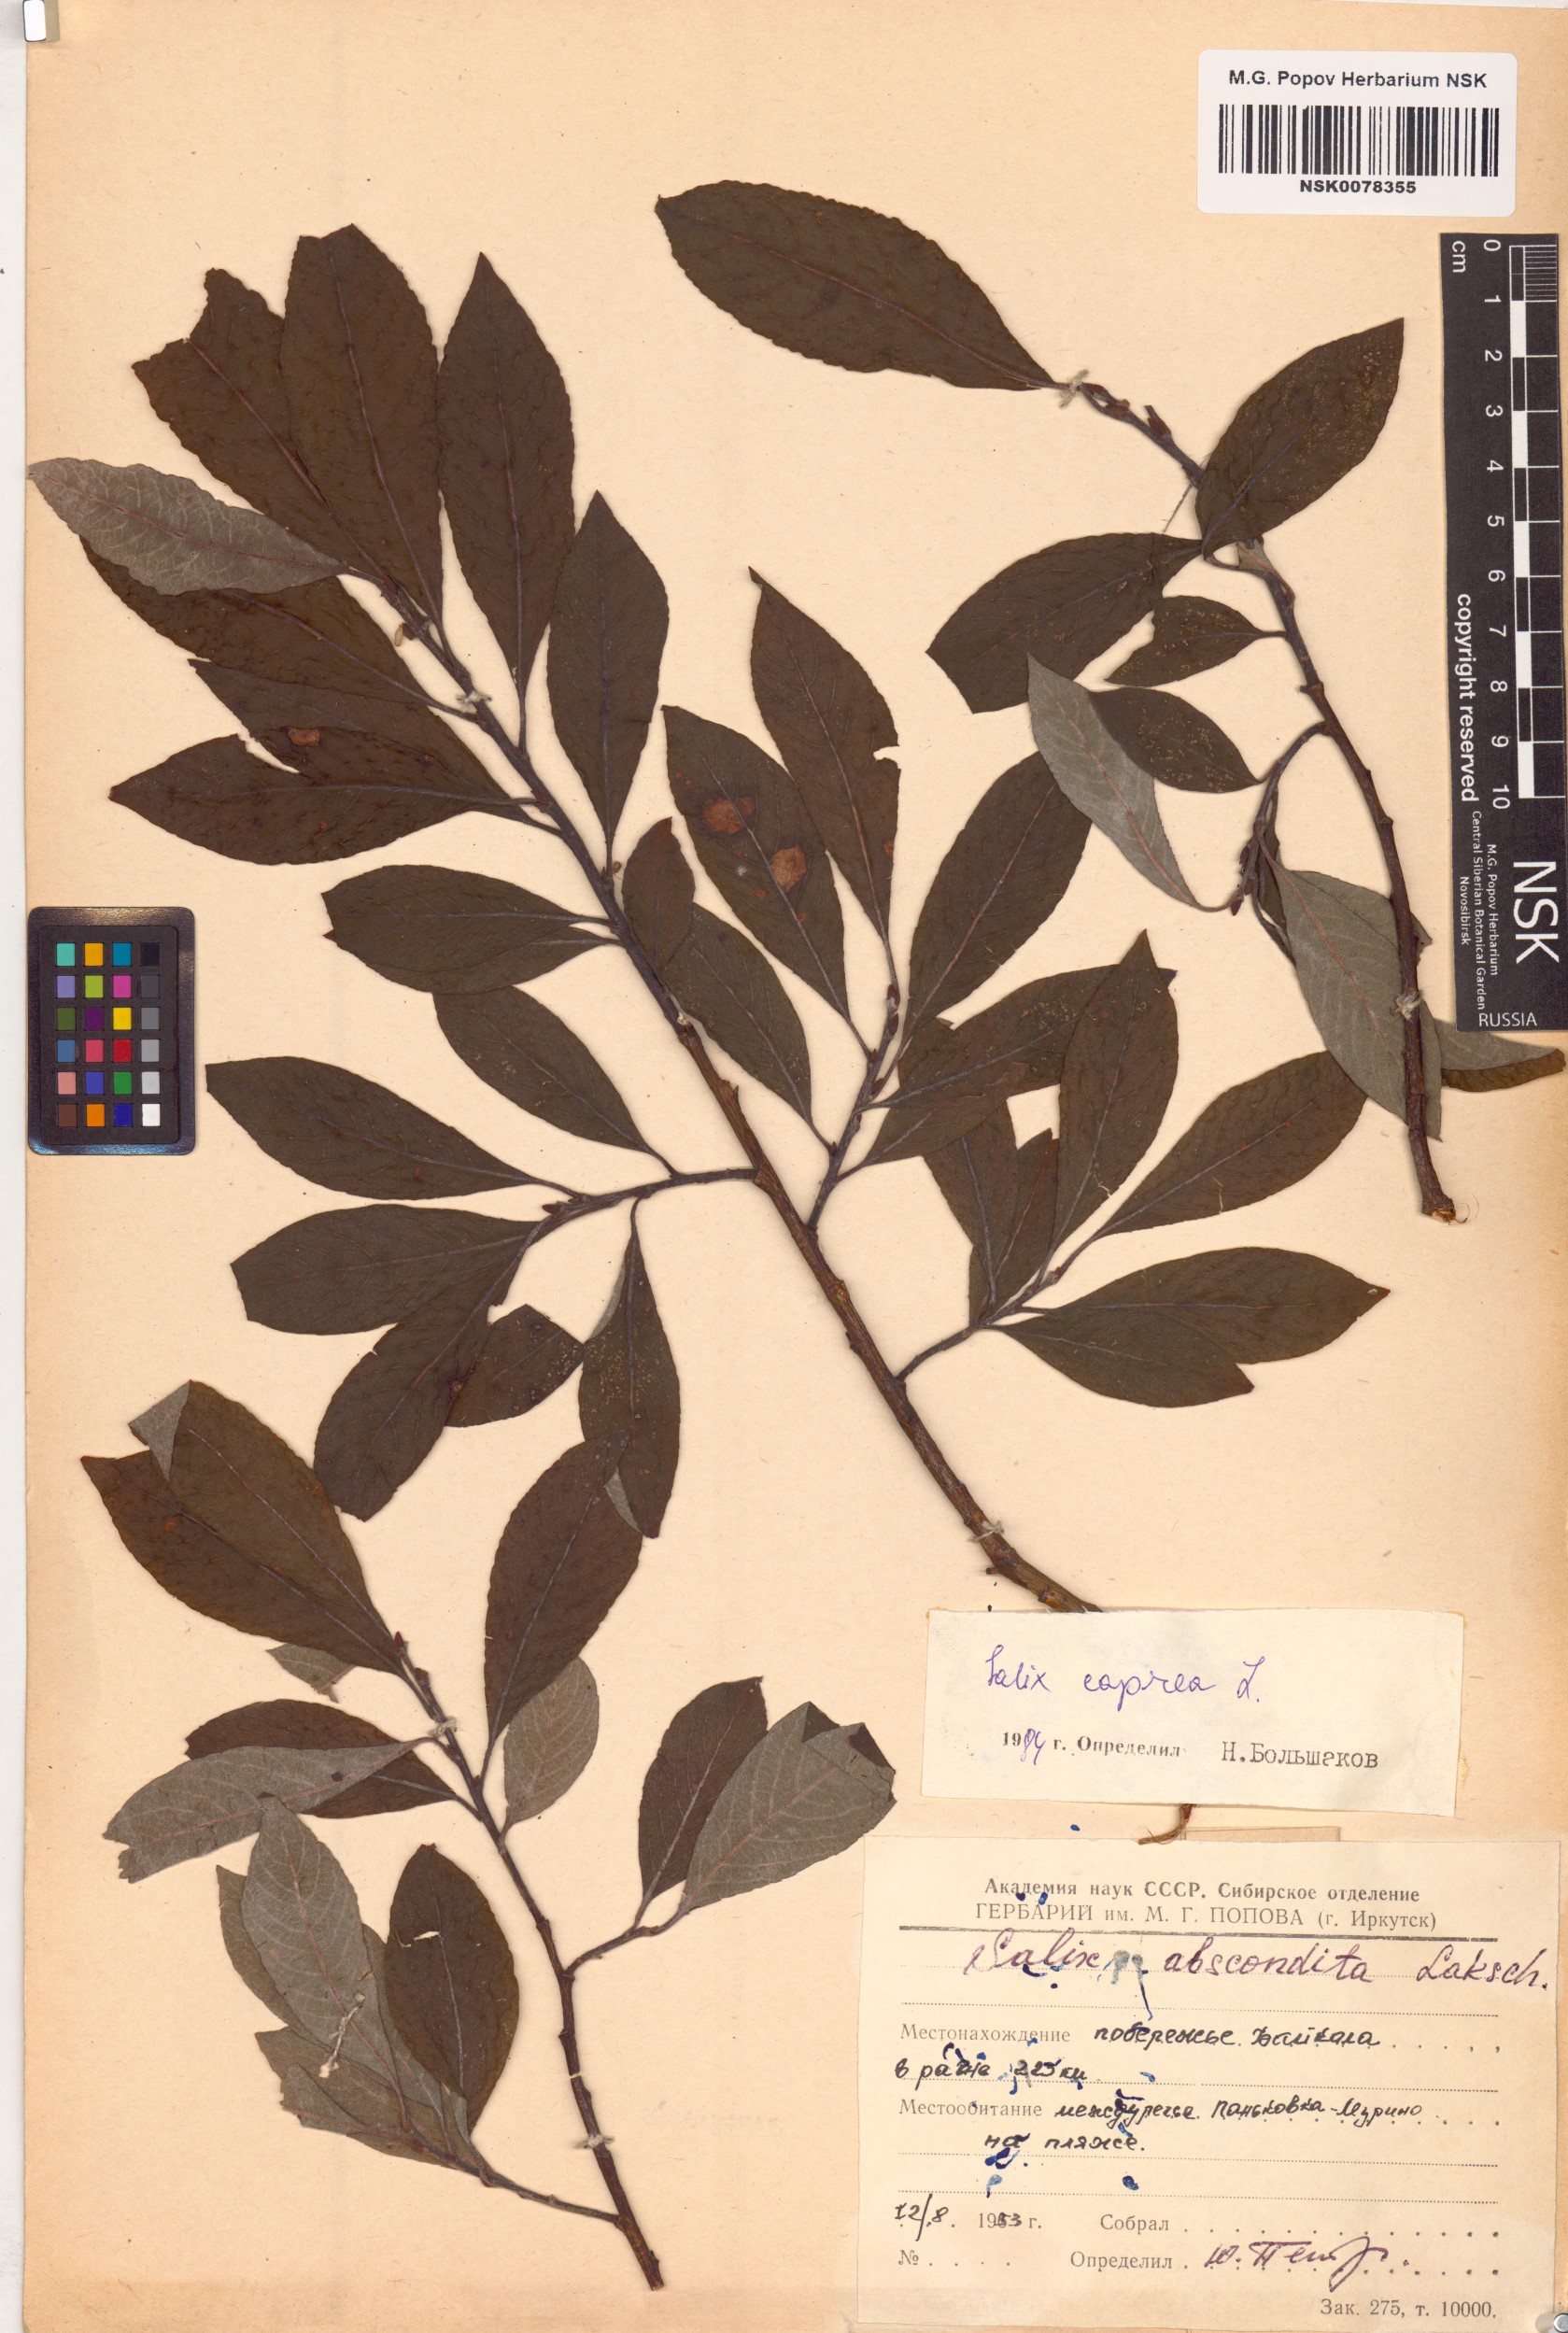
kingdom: Plantae
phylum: Tracheophyta
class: Magnoliopsida
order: Malpighiales
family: Salicaceae
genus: Salix
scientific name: Salix caprea
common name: Goat willow
